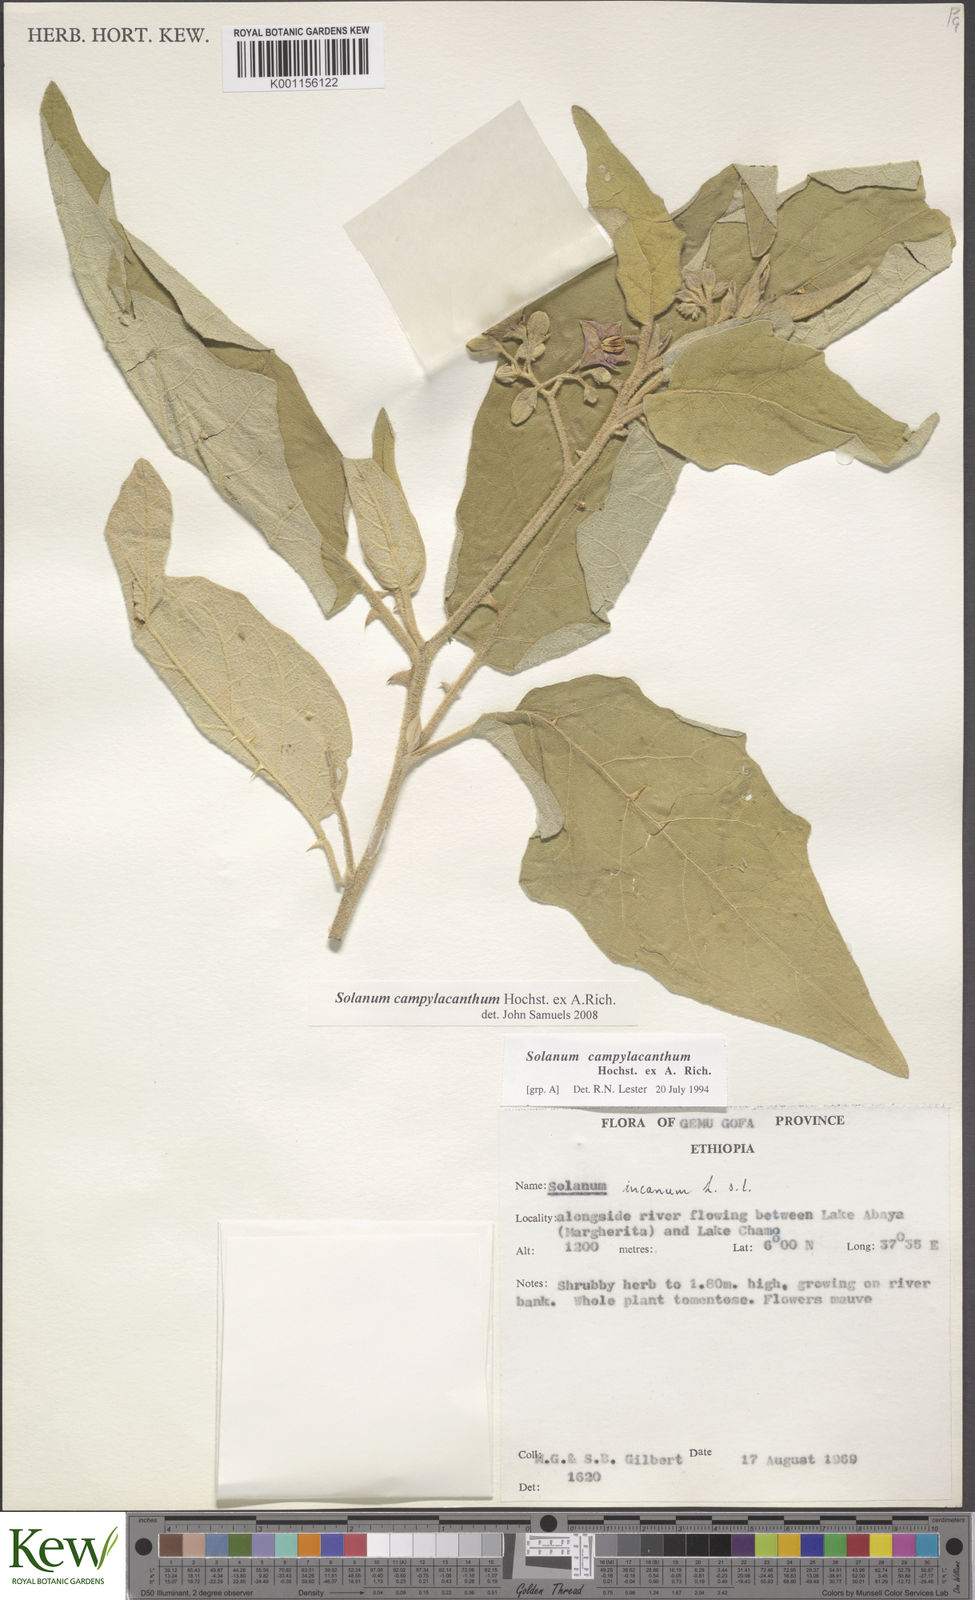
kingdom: Plantae
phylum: Tracheophyta
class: Magnoliopsida
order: Solanales
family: Solanaceae
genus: Solanum
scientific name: Solanum campylacanthum
